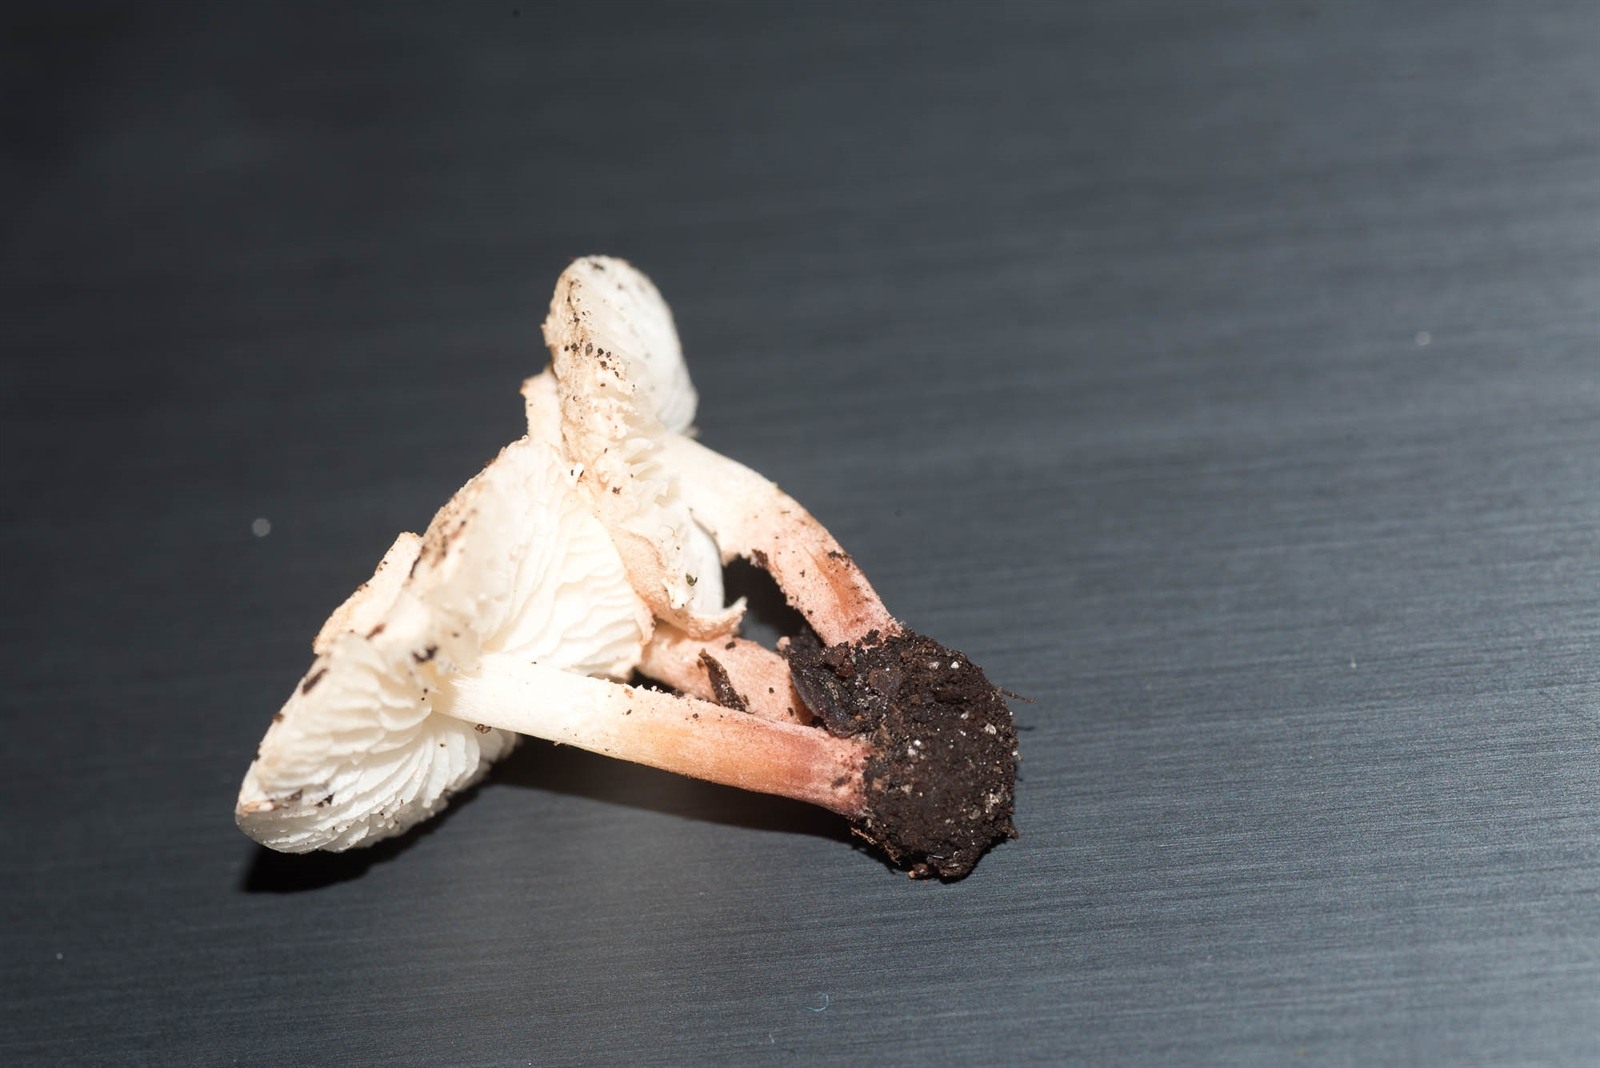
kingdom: Fungi
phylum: Basidiomycota
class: Agaricomycetes
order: Agaricales
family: Agaricaceae
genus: Cystolepiota
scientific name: Cystolepiota seminuda
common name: Bearded dapperling
